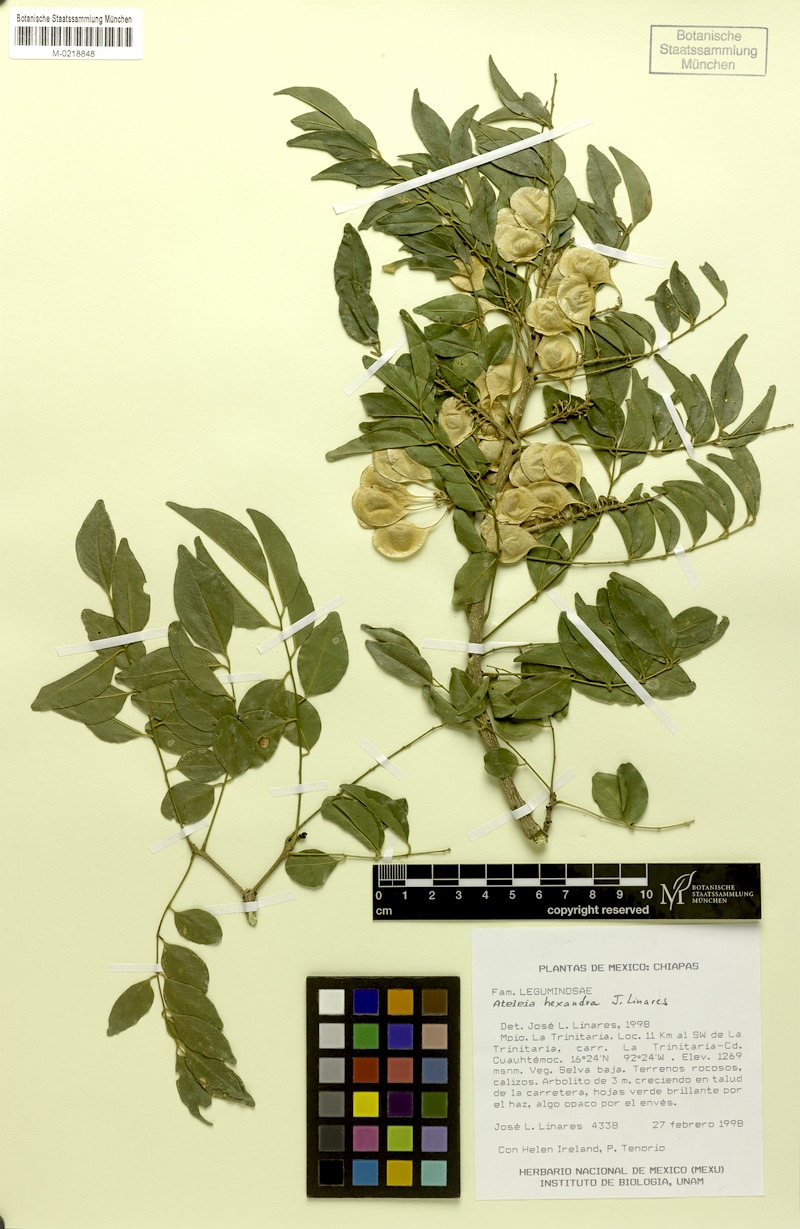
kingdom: Plantae
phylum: Tracheophyta
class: Magnoliopsida
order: Fabales
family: Fabaceae
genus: Ateleia
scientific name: Ateleia hexandra
